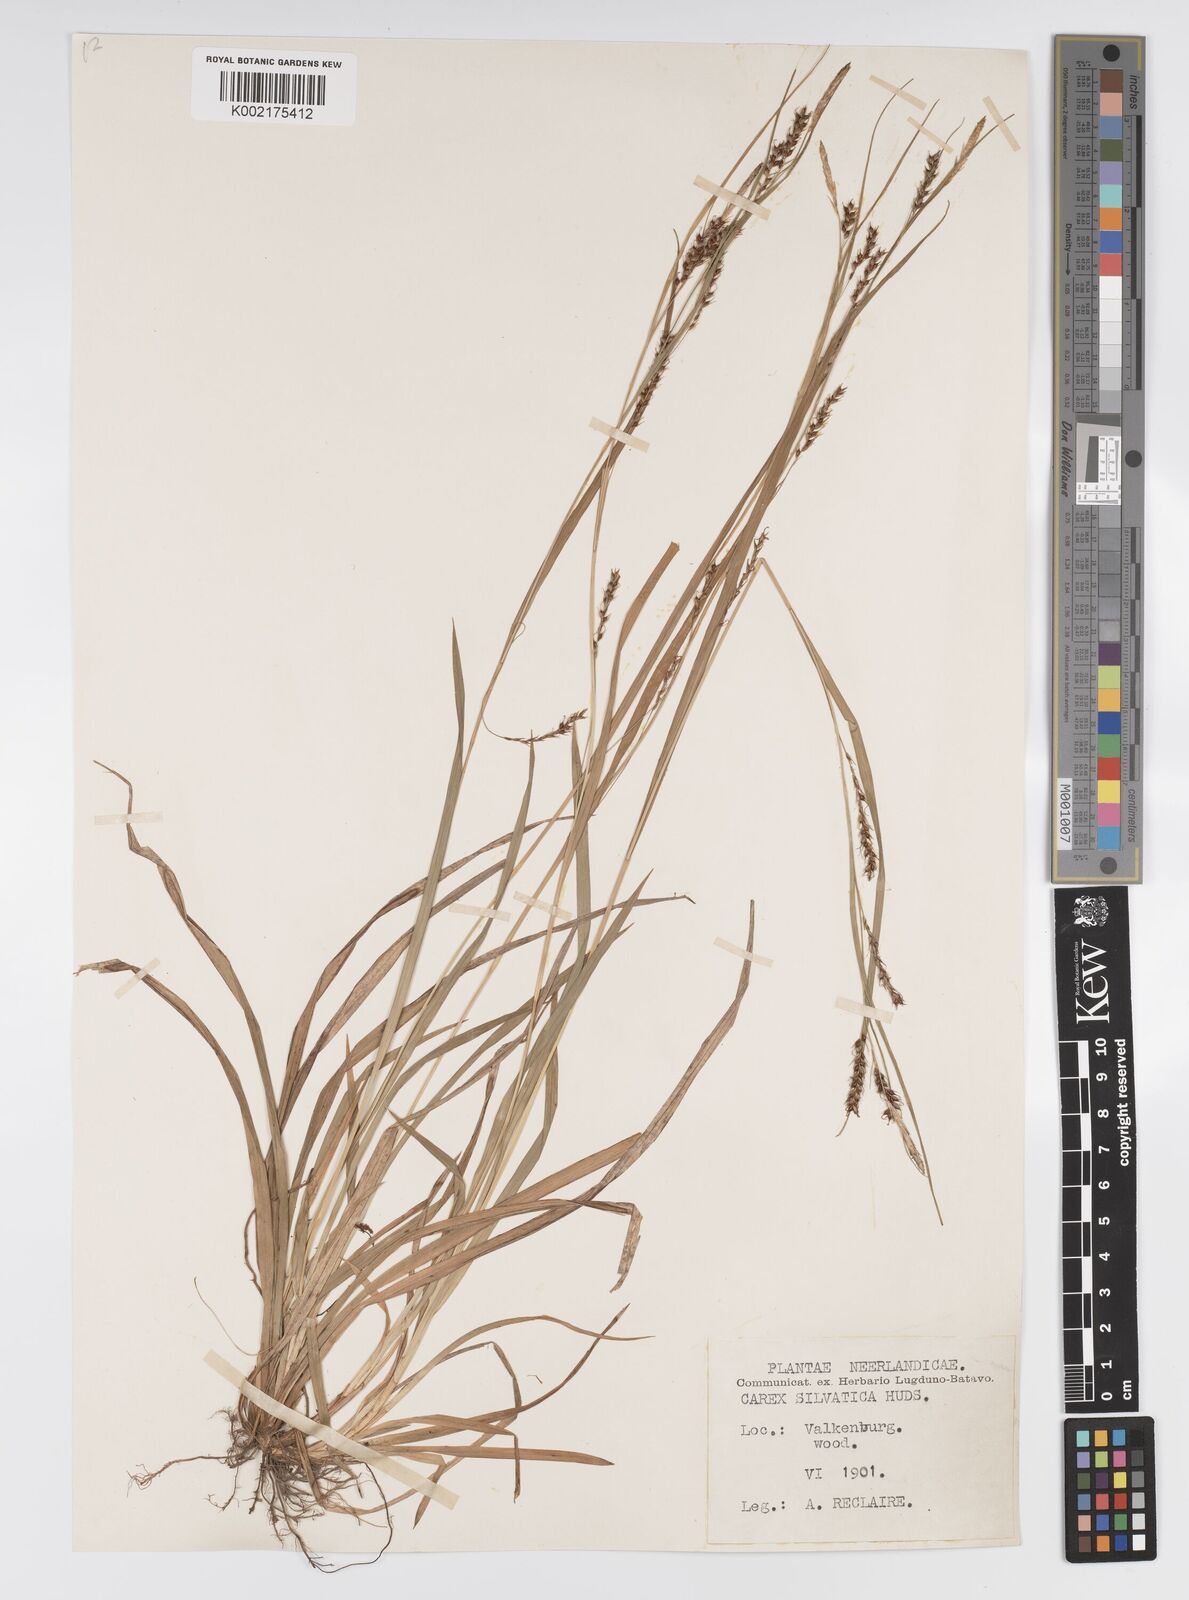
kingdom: Plantae
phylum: Tracheophyta
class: Liliopsida
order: Poales
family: Cyperaceae
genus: Carex
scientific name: Carex sylvatica
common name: Wood-sedge
